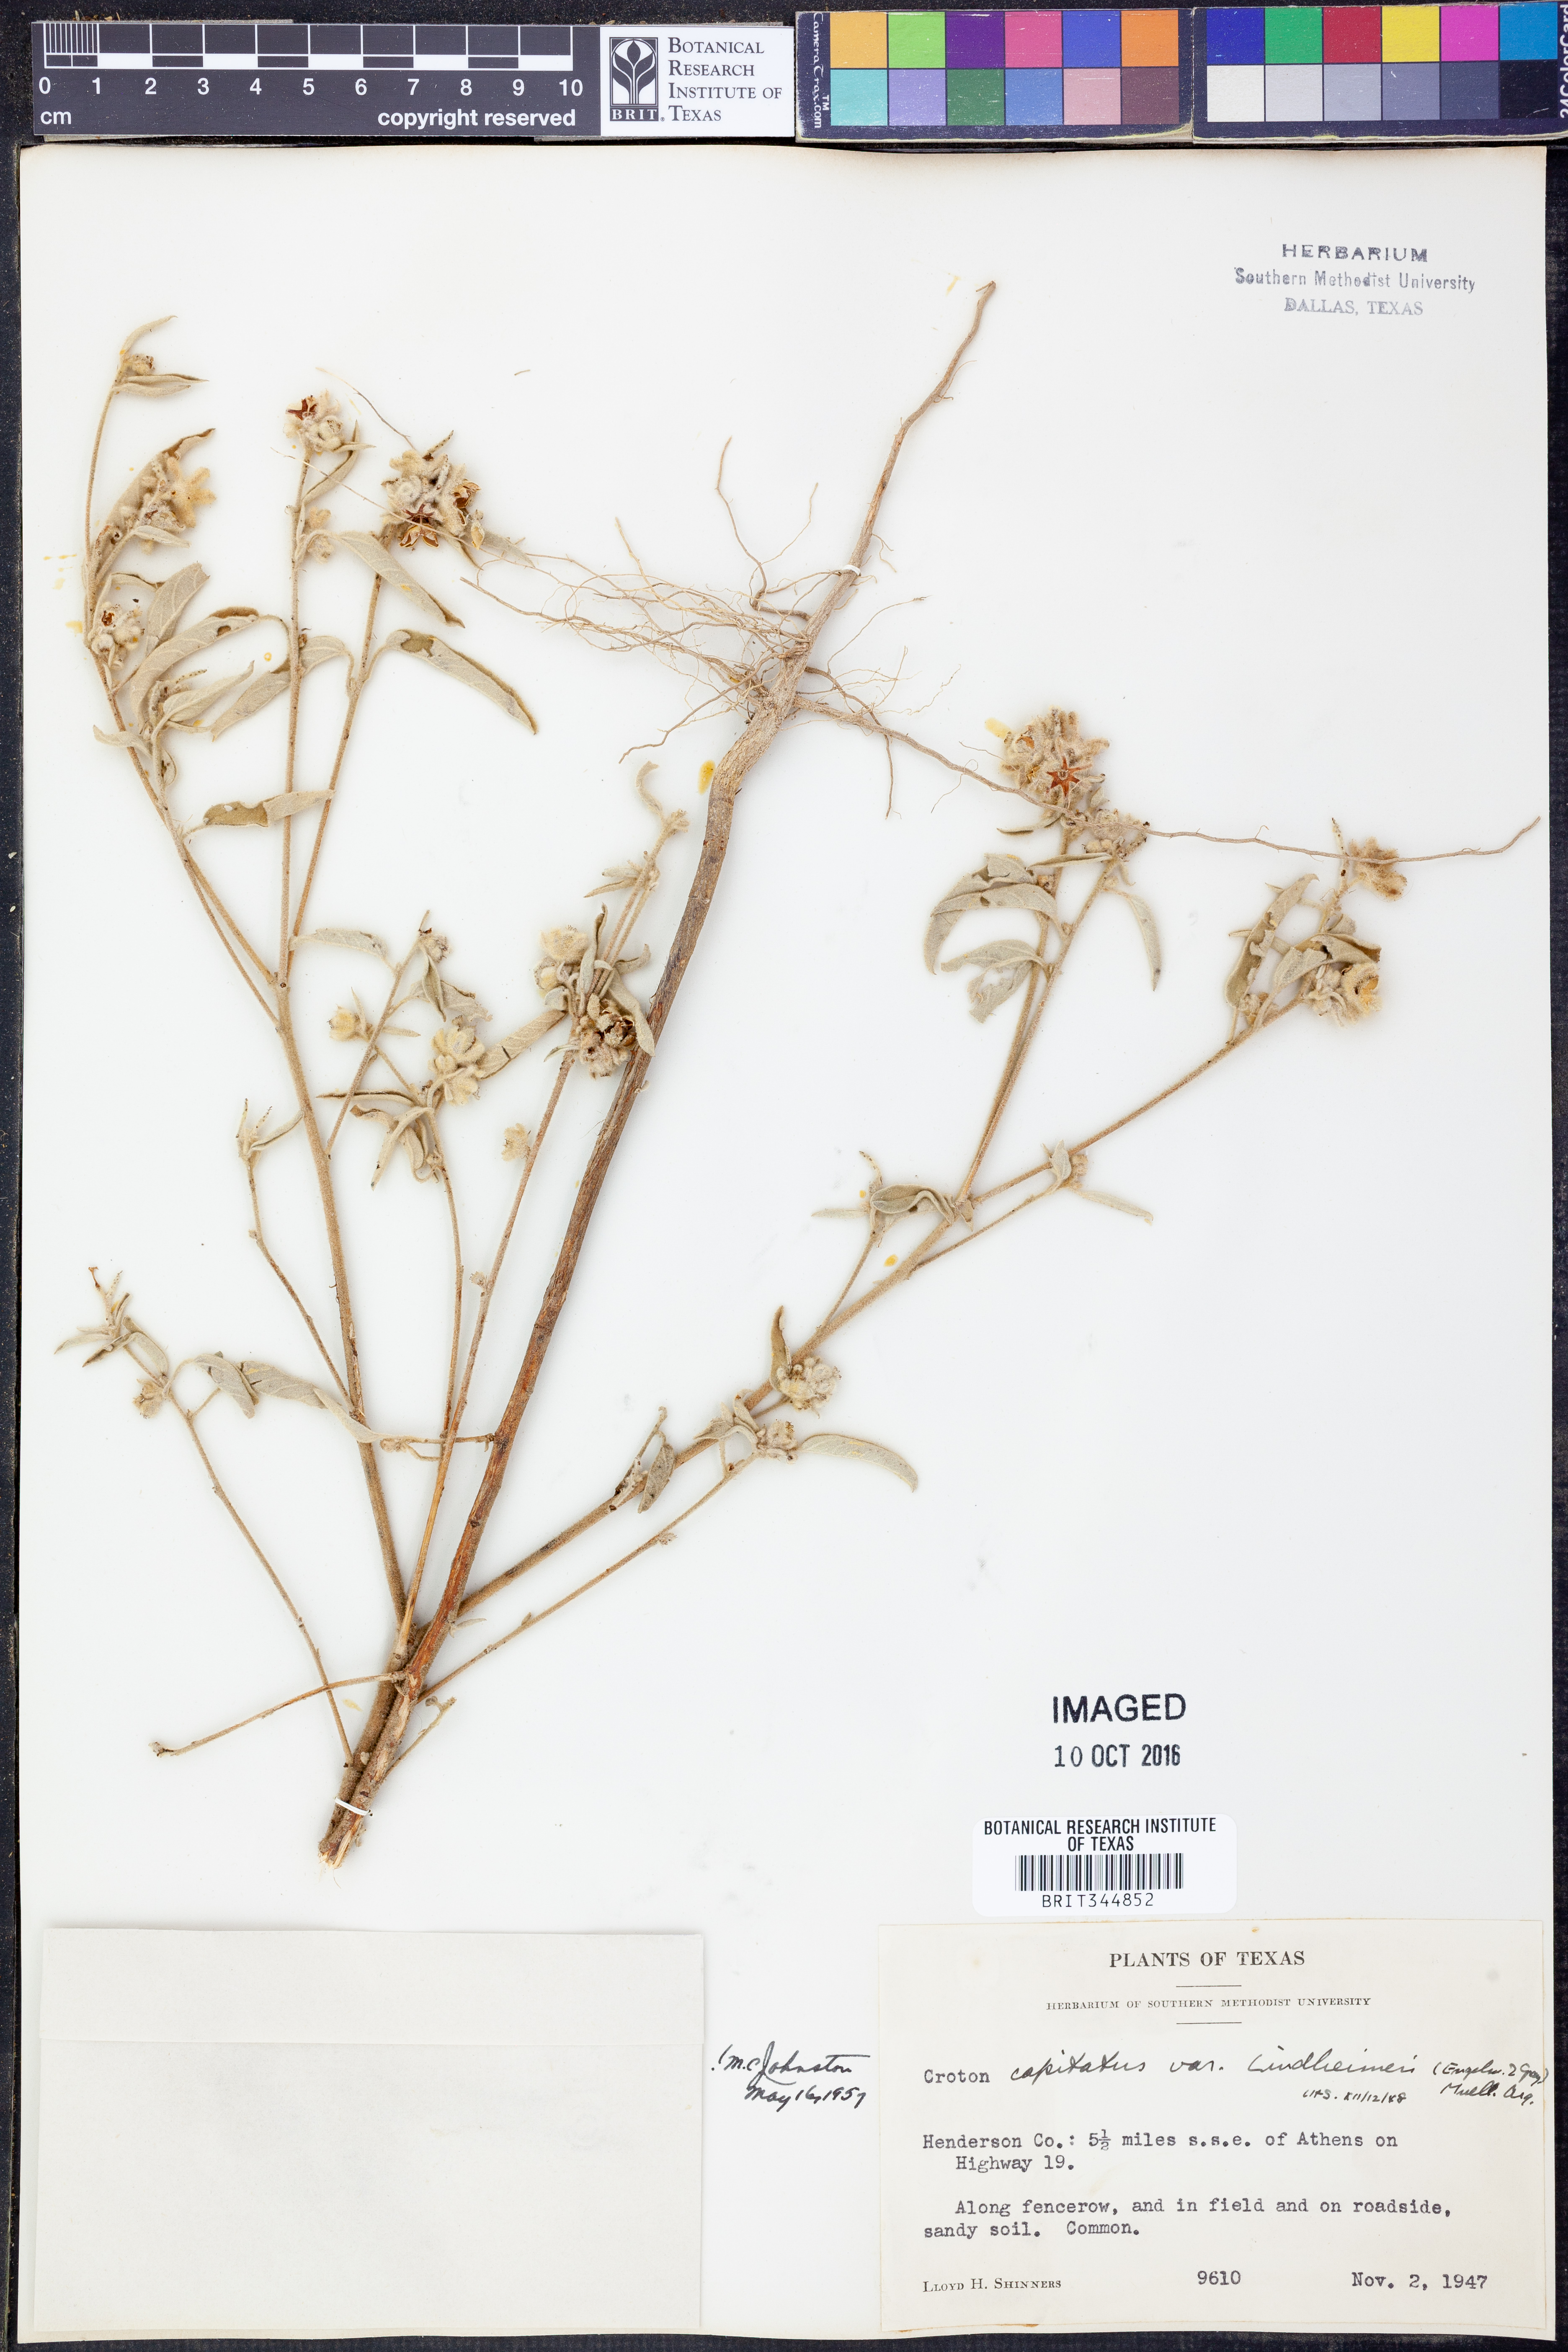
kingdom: Plantae
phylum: Tracheophyta
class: Magnoliopsida
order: Malpighiales
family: Euphorbiaceae
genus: Croton
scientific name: Croton lindheimeri
